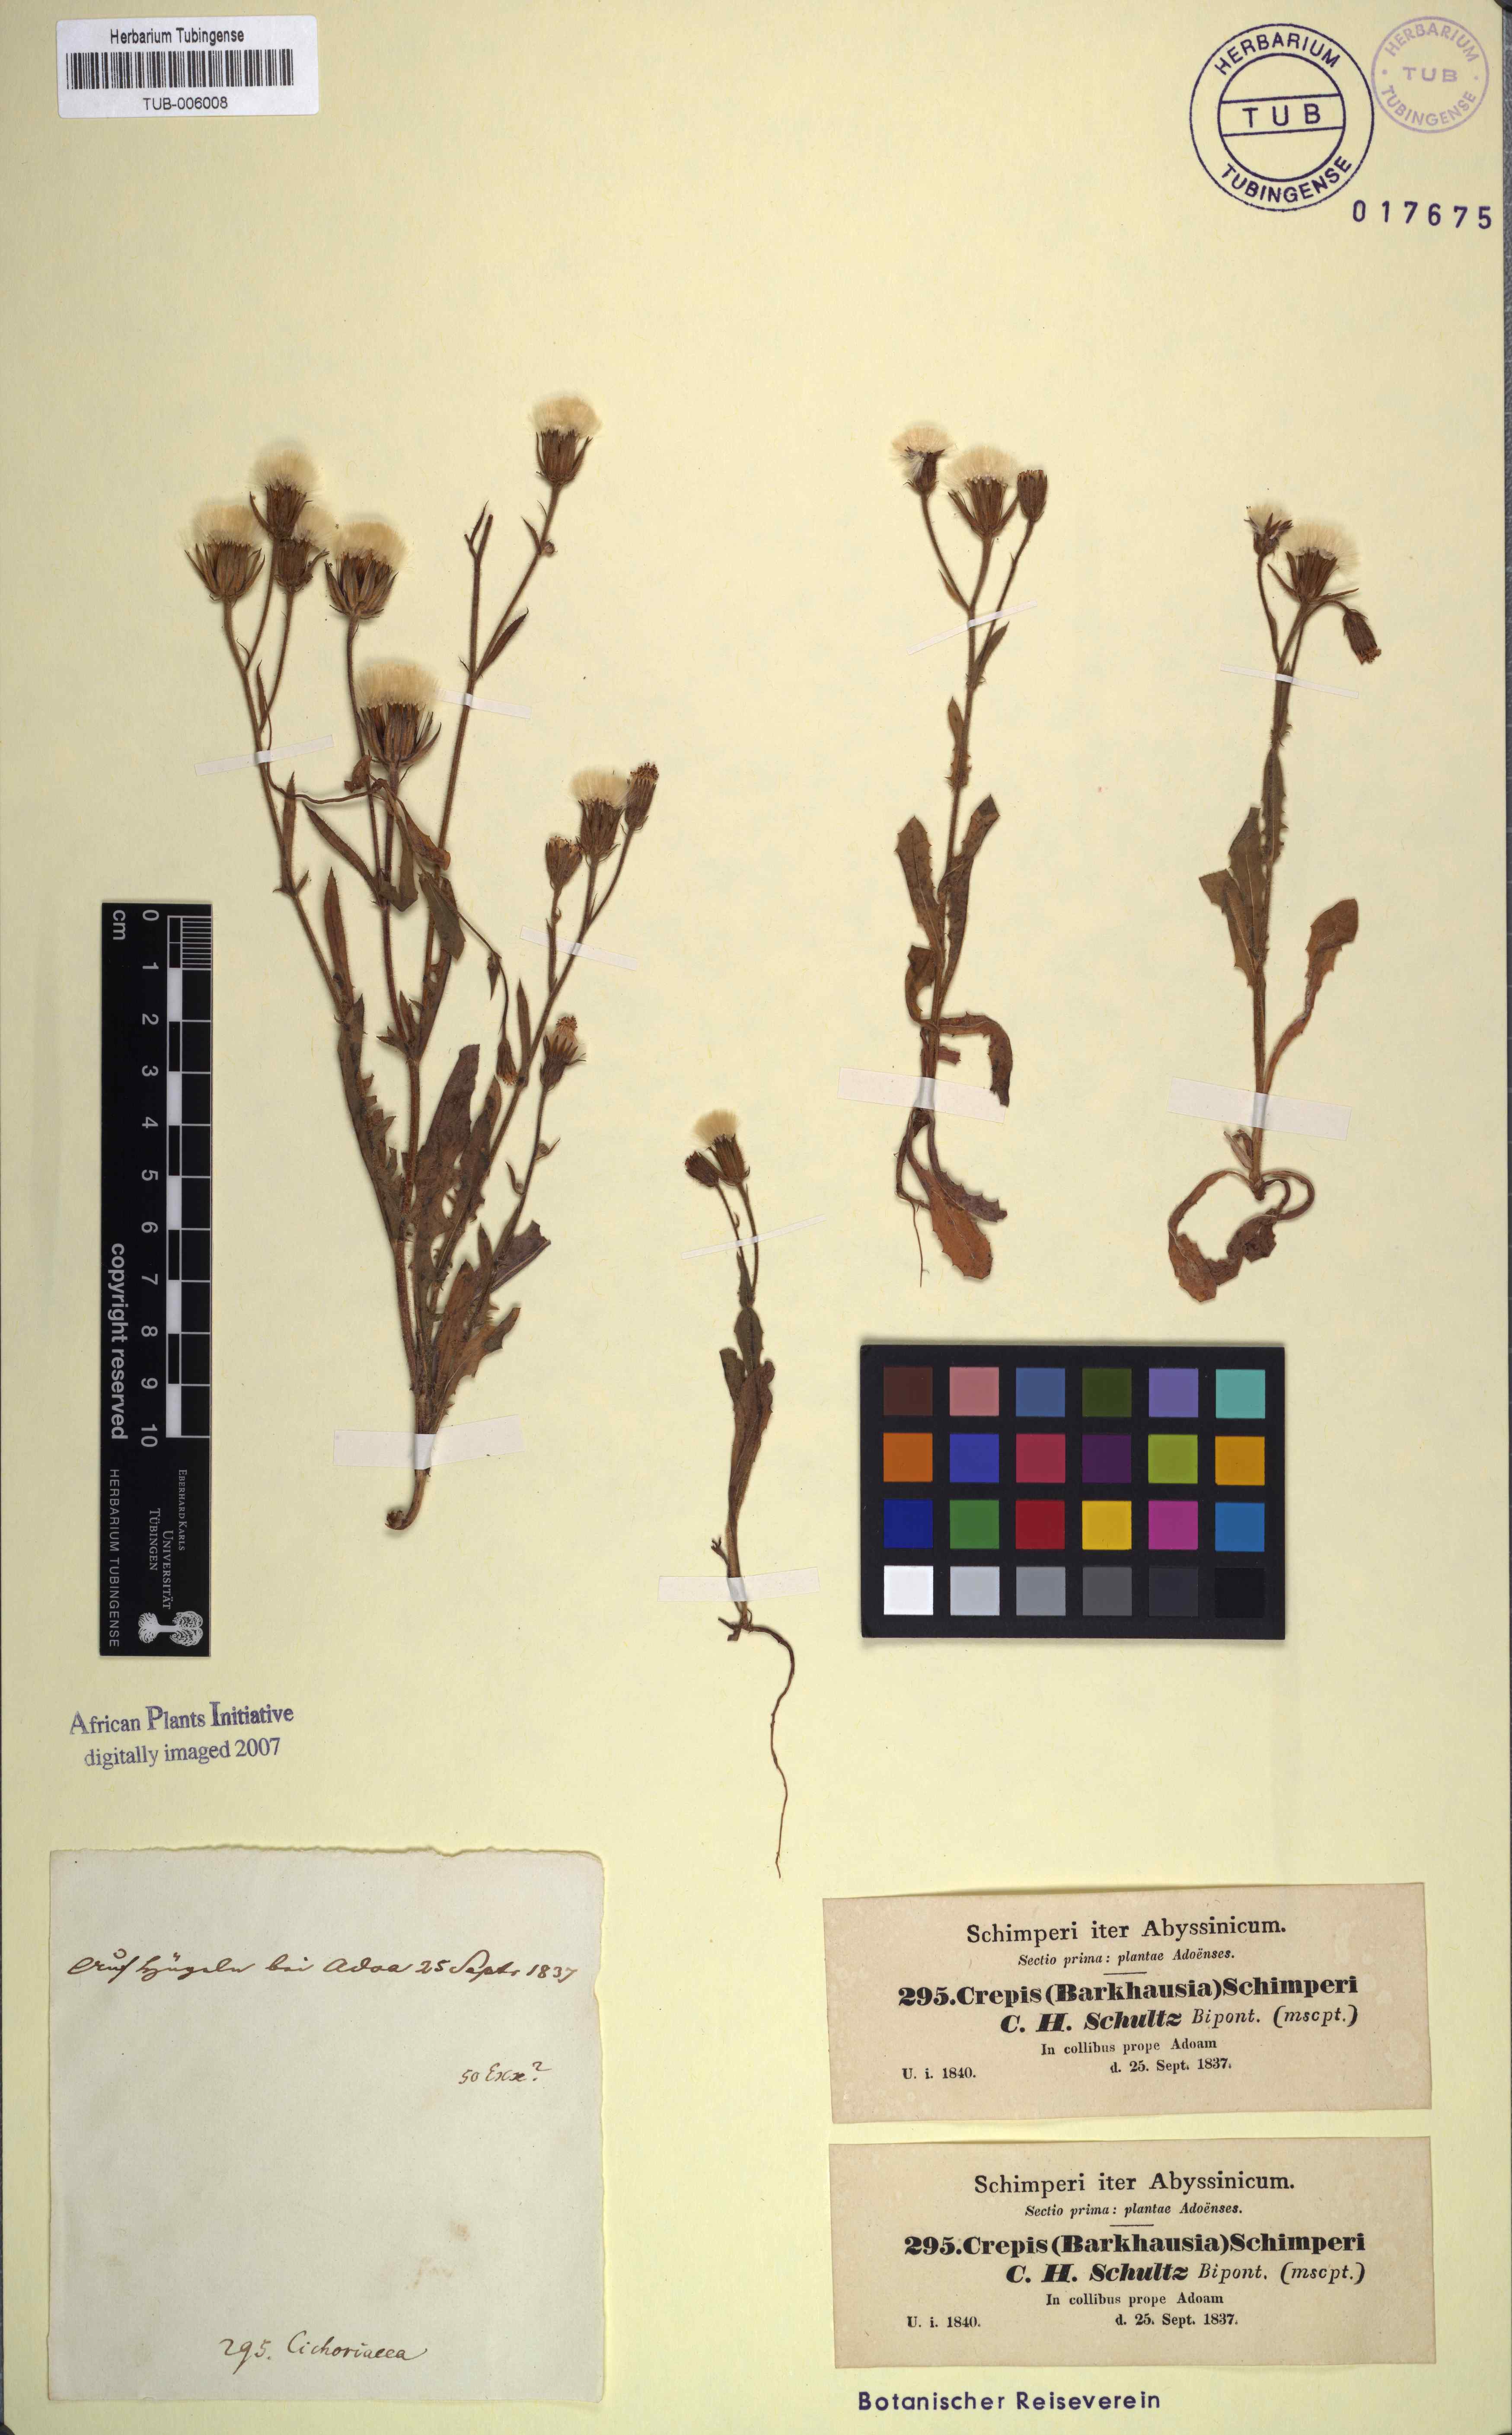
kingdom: Plantae
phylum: Tracheophyta
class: Magnoliopsida
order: Asterales
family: Asteraceae
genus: Crepis
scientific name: Crepis foetida
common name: Stinking hawk's-beard
